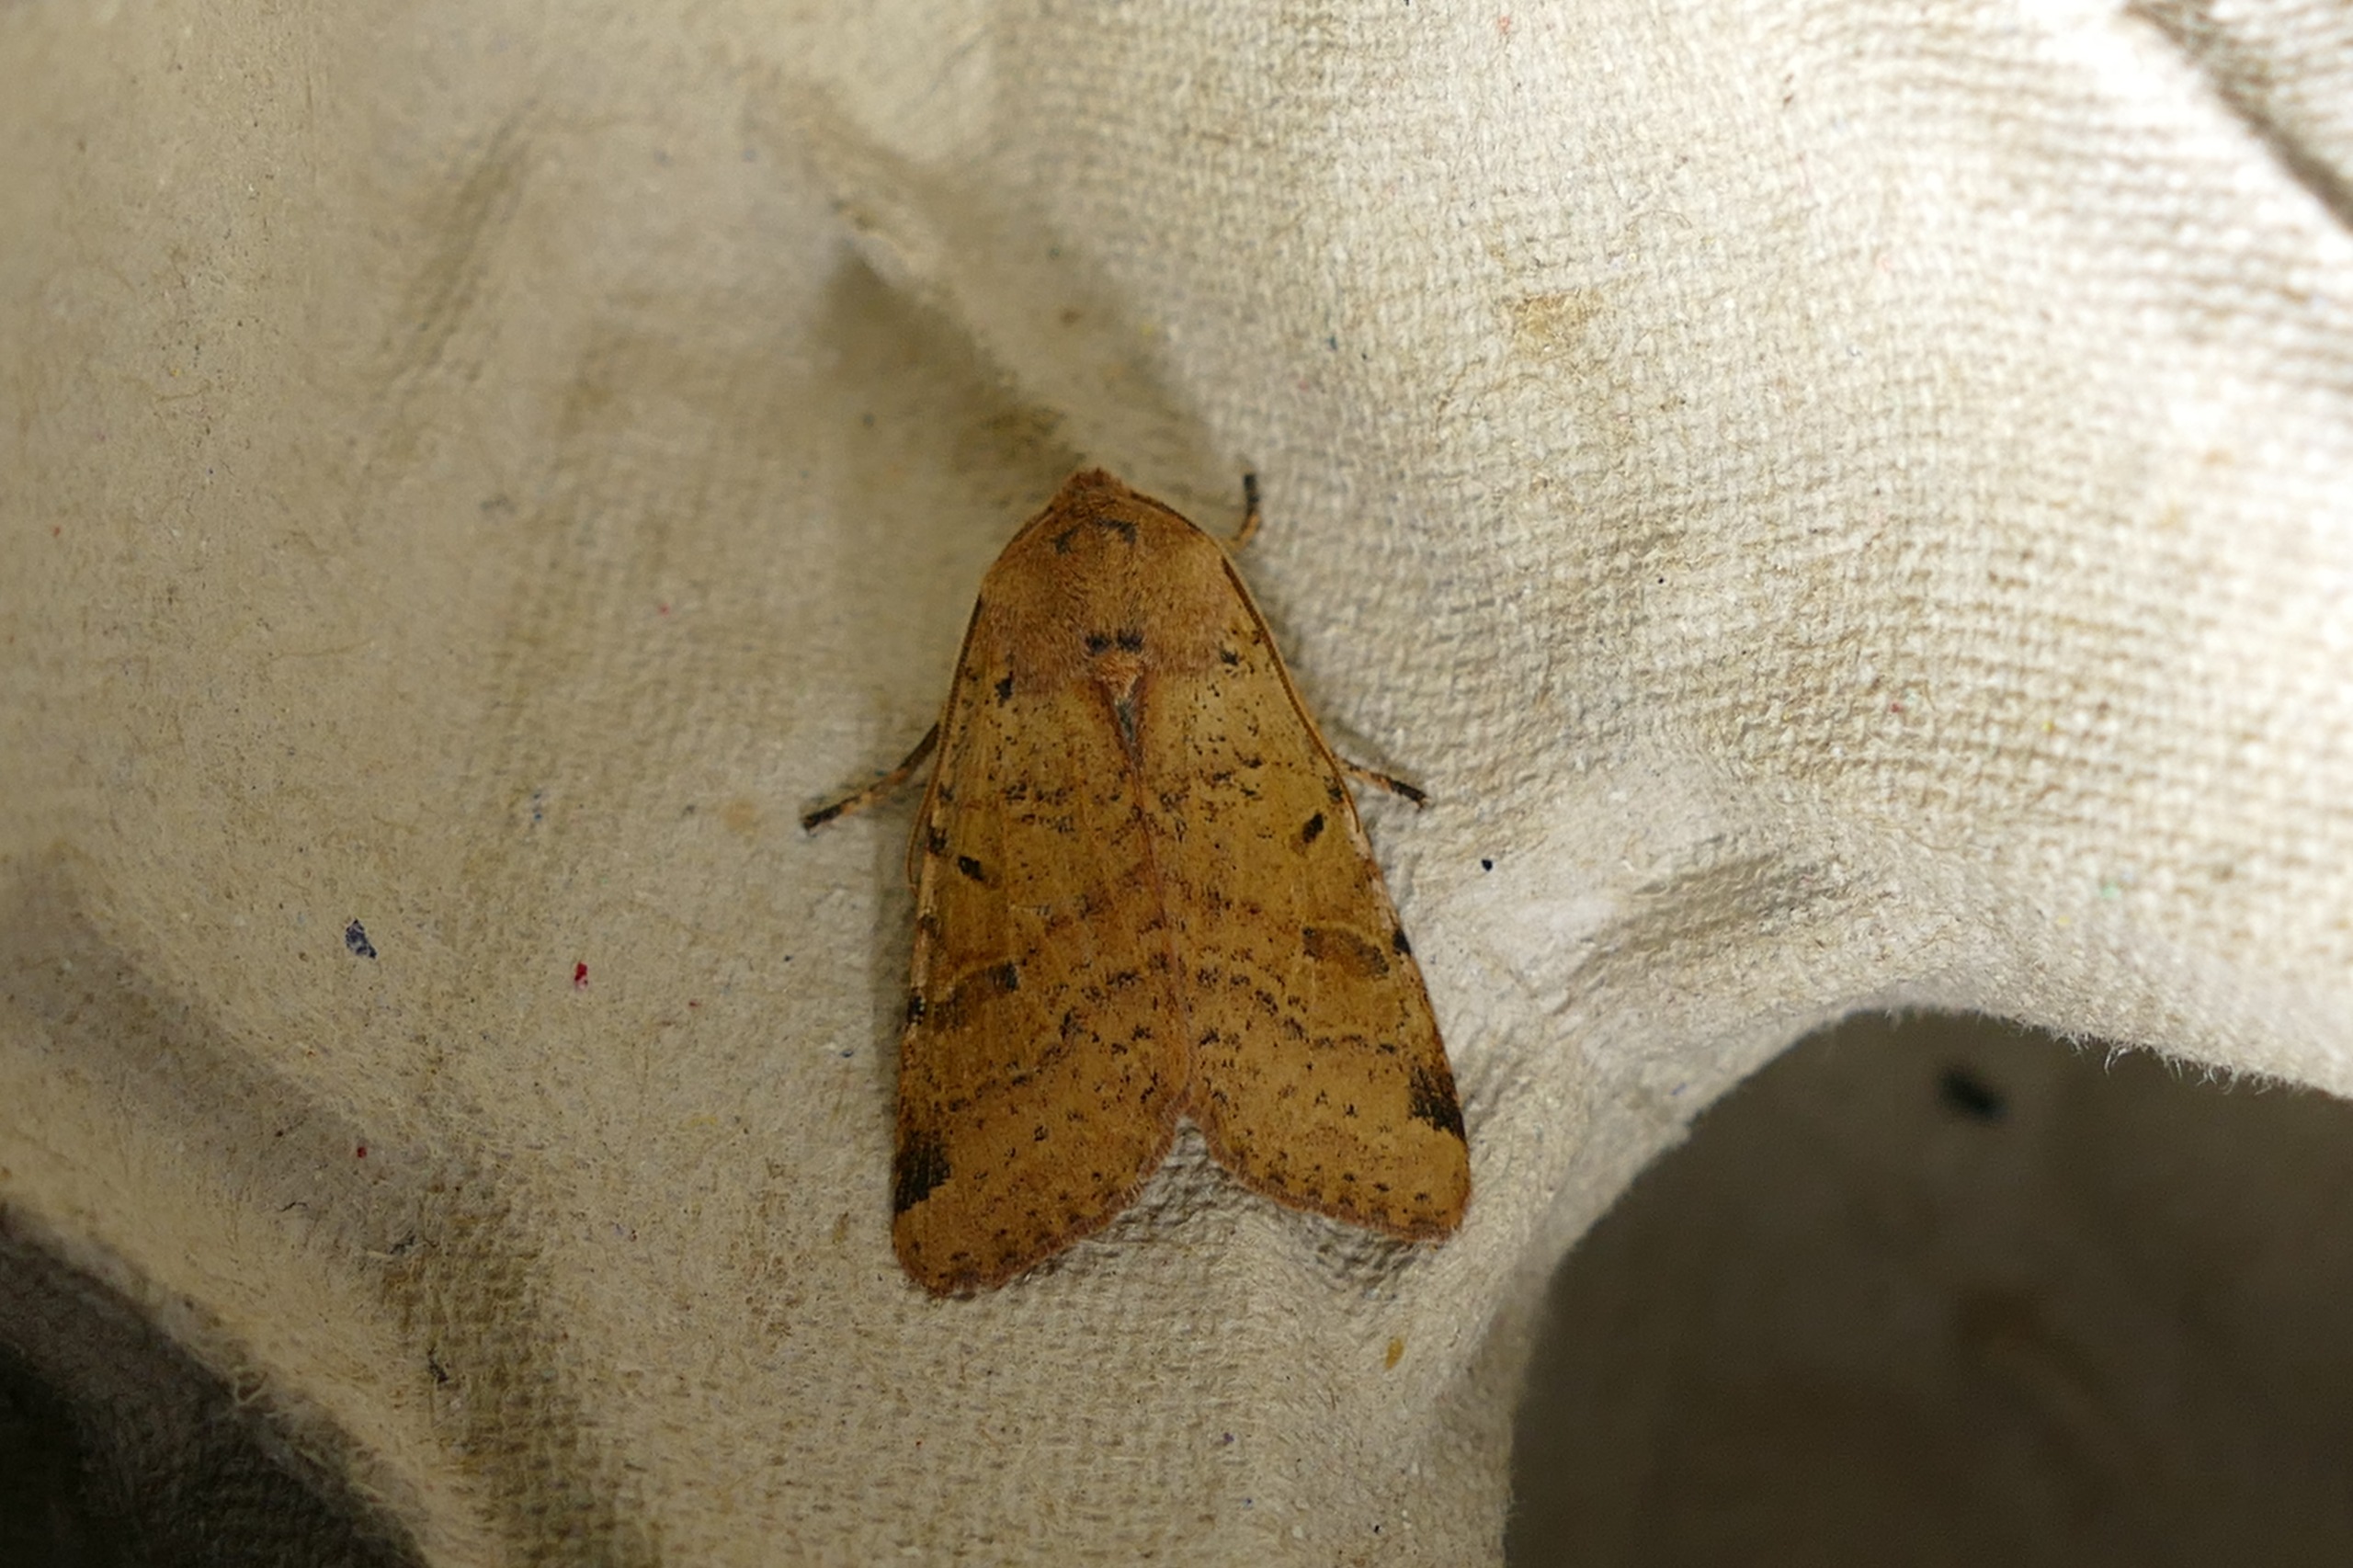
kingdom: Animalia
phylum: Arthropoda
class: Insecta
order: Lepidoptera
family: Noctuidae
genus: Agrochola
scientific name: Agrochola lychnidis
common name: Foranderlig jordfarveugle
